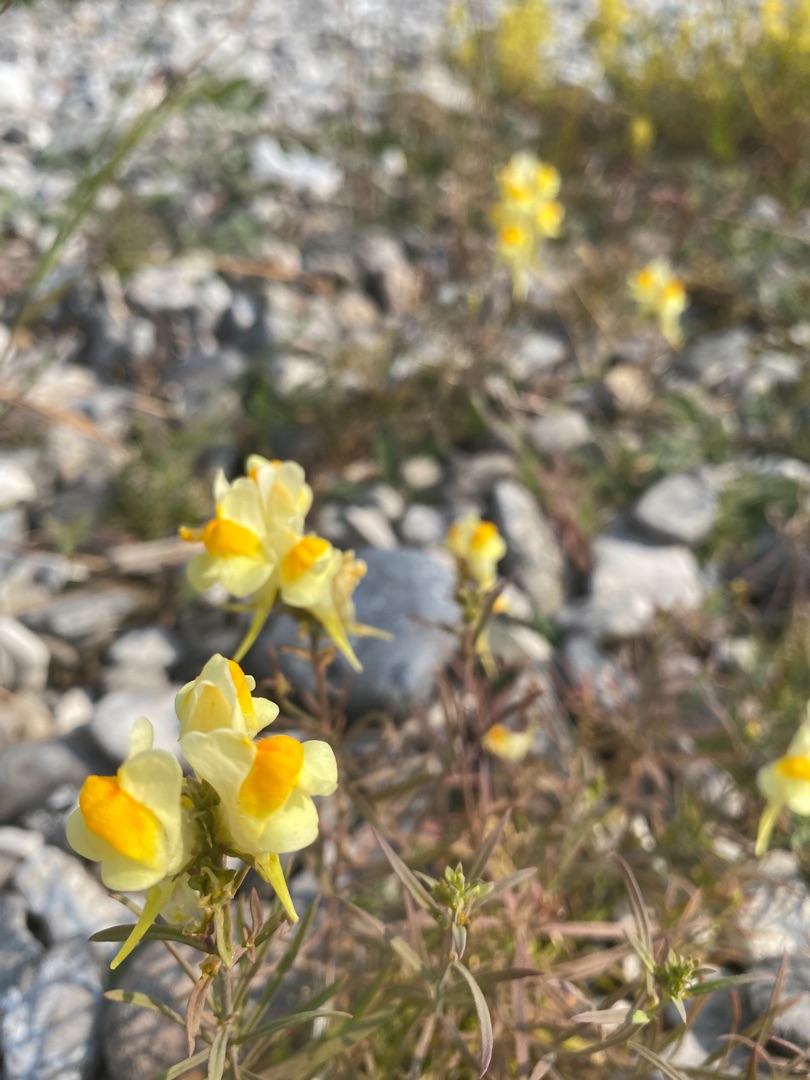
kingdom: Plantae
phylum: Tracheophyta
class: Magnoliopsida
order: Lamiales
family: Plantaginaceae
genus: Linaria
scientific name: Linaria vulgaris
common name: Almindelig torskemund
